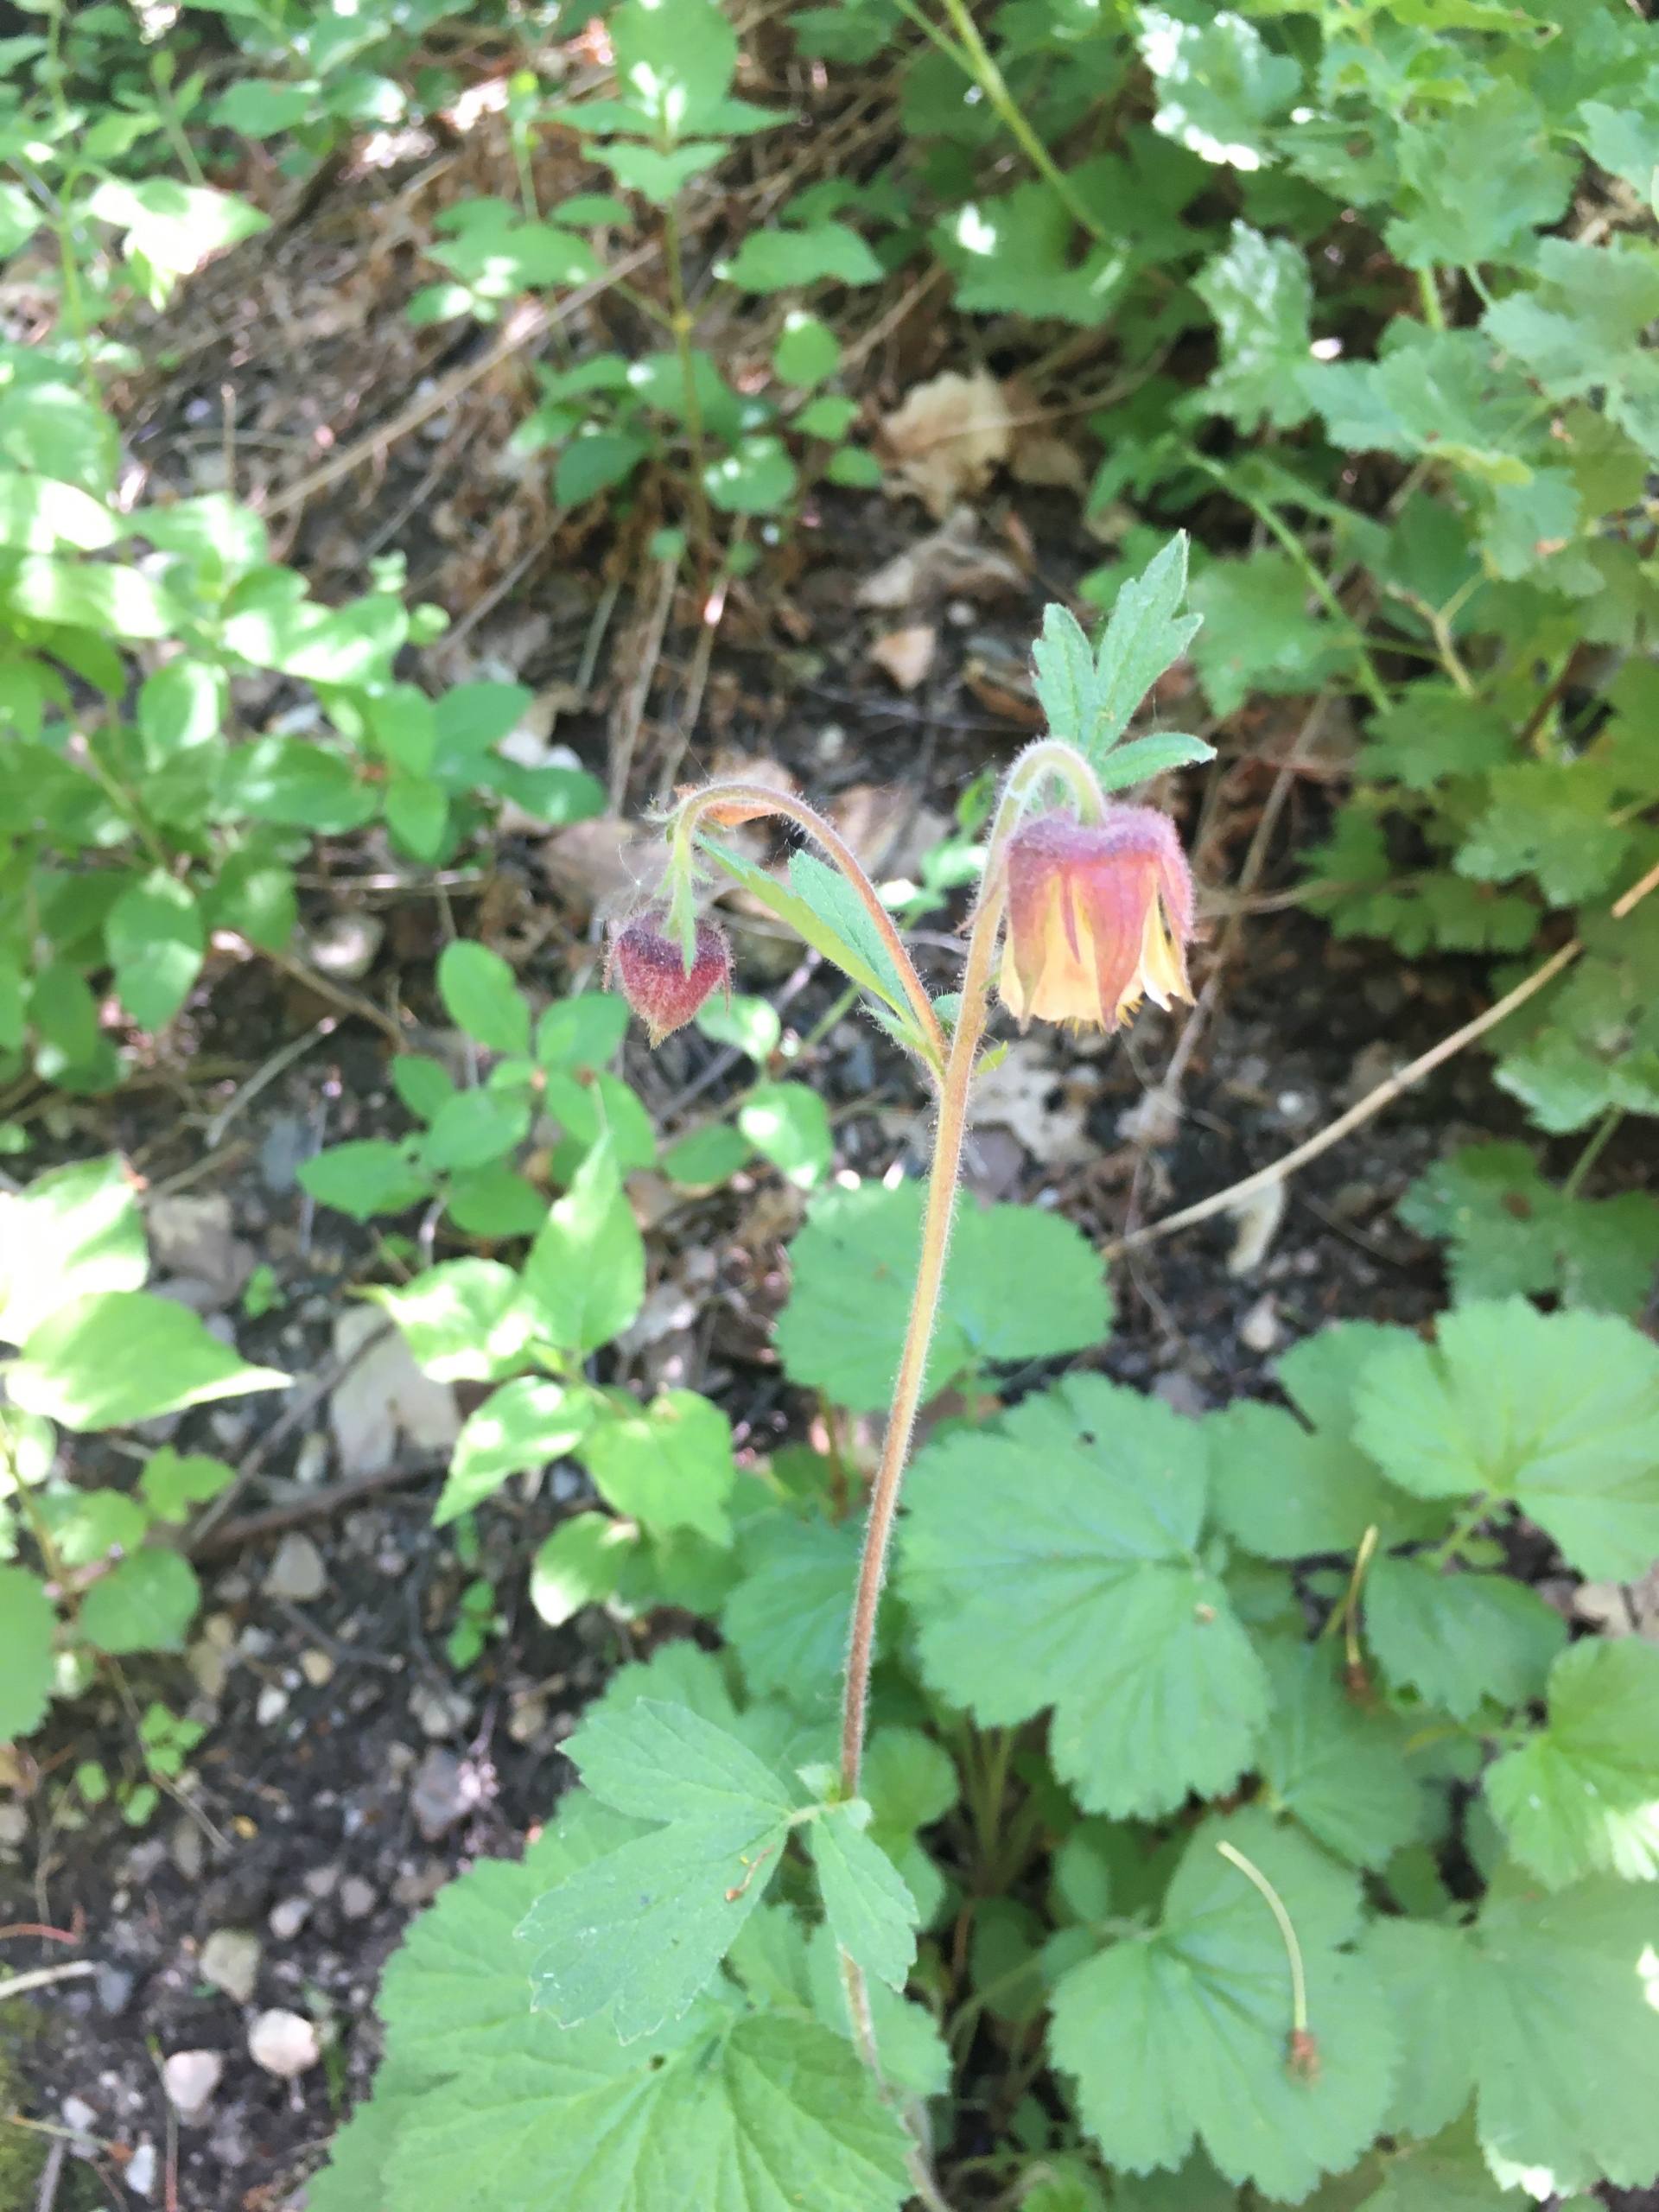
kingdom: Plantae
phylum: Tracheophyta
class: Magnoliopsida
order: Rosales
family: Rosaceae
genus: Geum
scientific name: Geum rivale
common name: Eng-nellikerod
